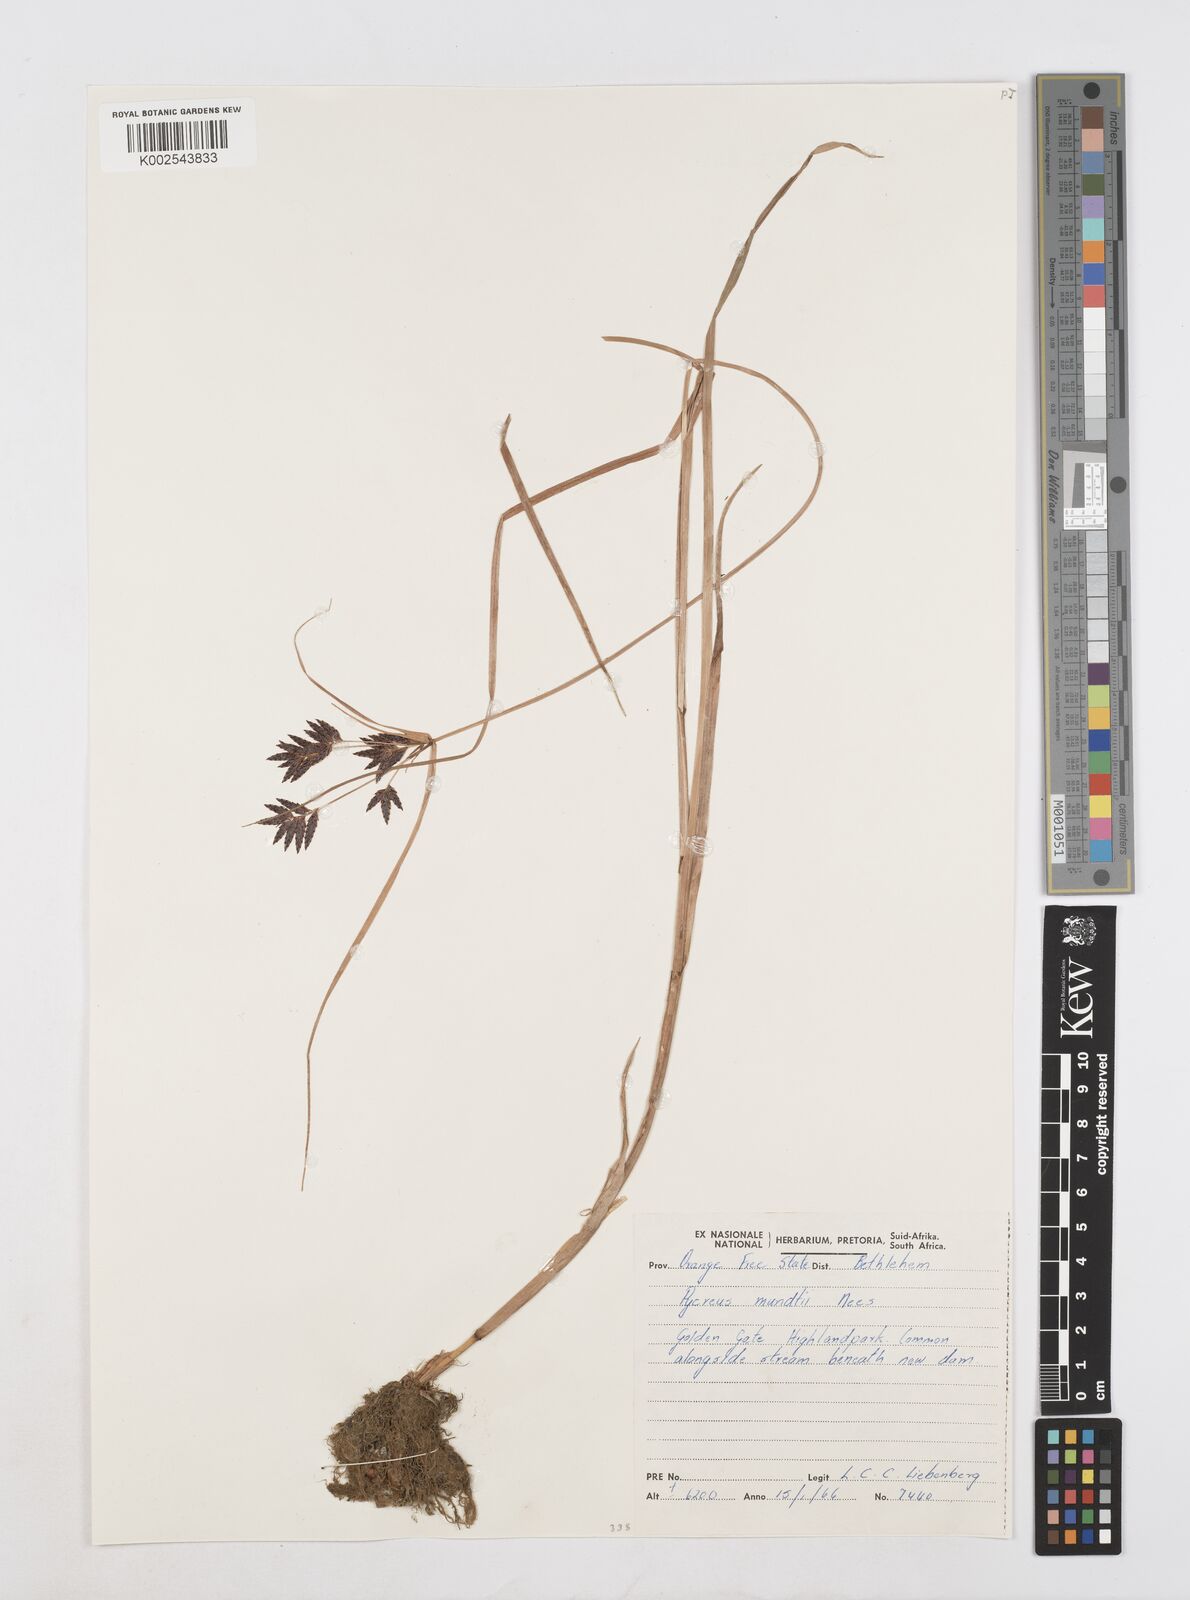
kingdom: Plantae
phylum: Tracheophyta
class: Liliopsida
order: Poales
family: Cyperaceae
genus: Cyperus
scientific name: Cyperus mundii
